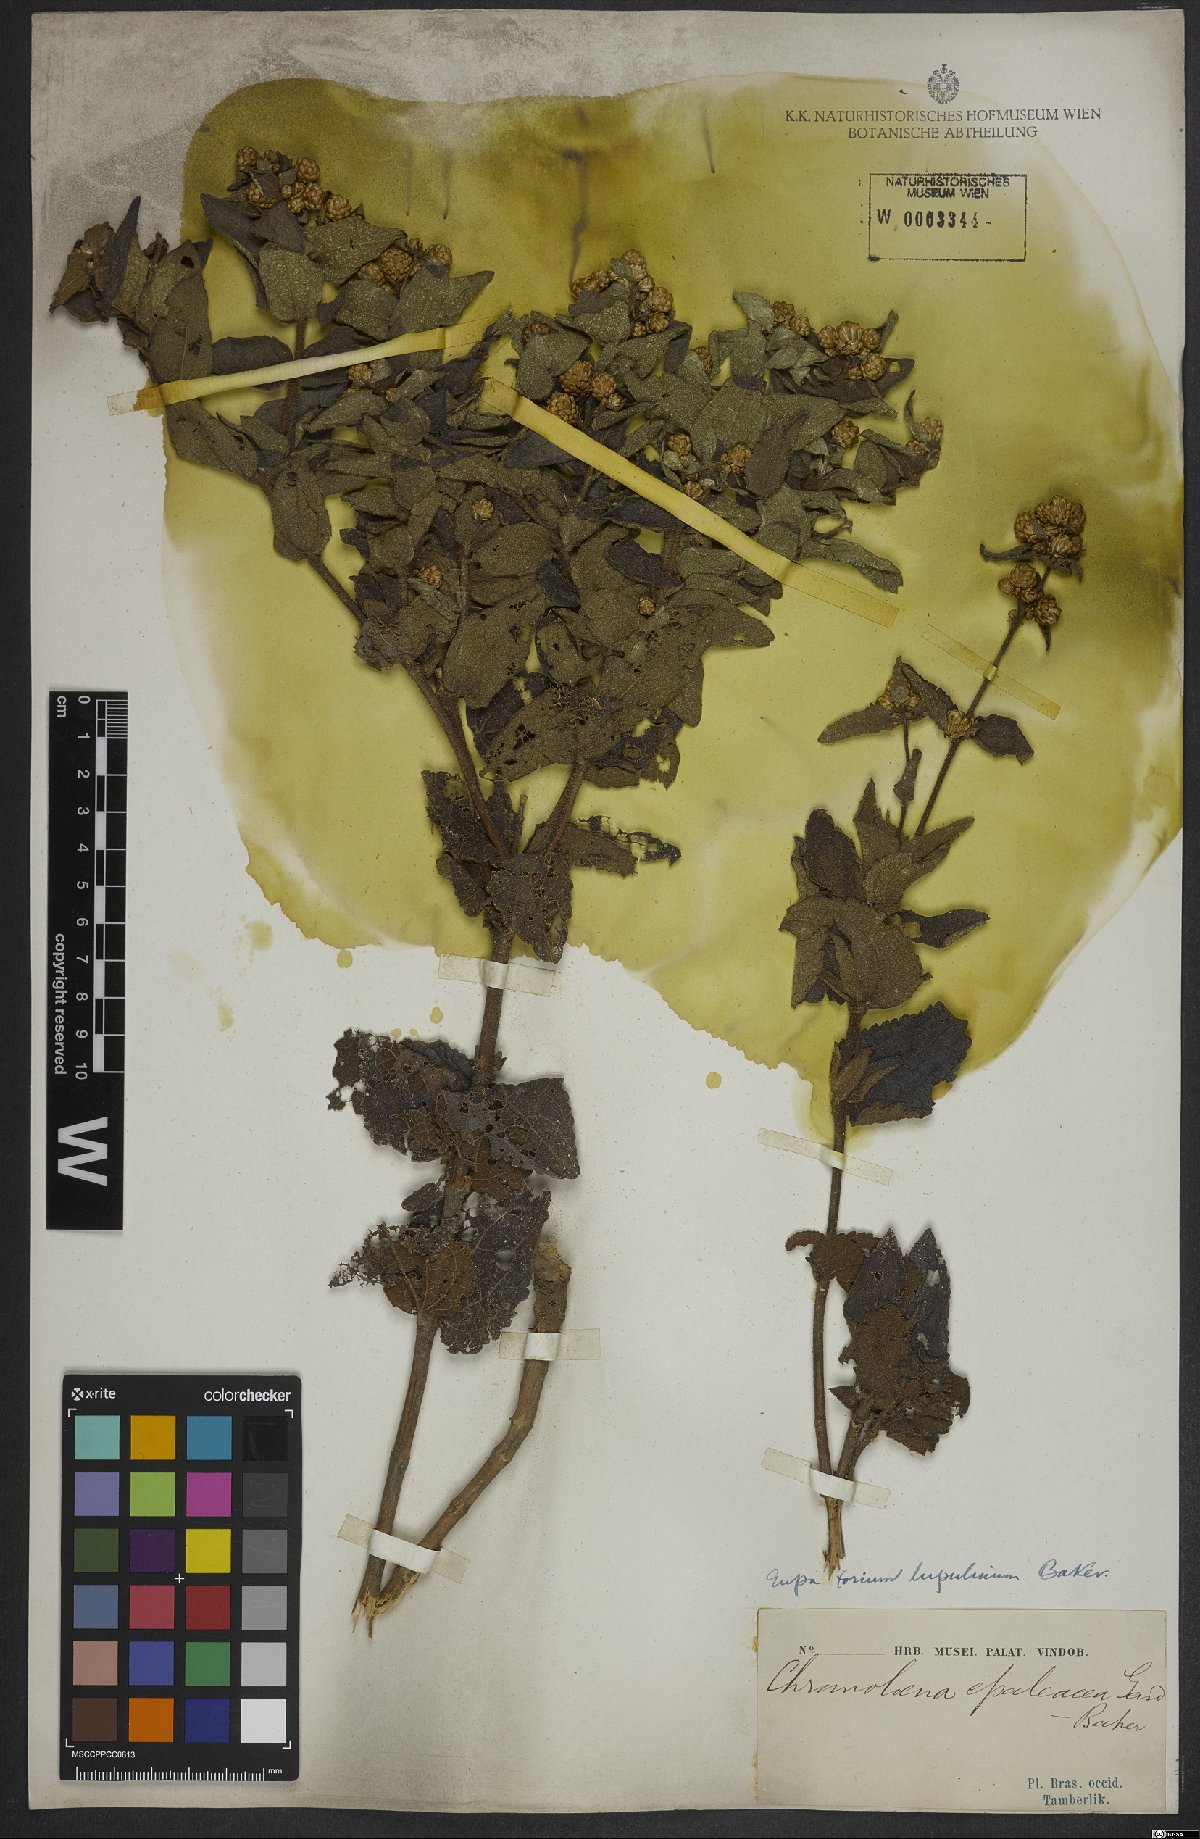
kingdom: Plantae
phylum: Tracheophyta
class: Magnoliopsida
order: Asterales
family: Asteraceae
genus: Chromolaena
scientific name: Chromolaena epaleacea
